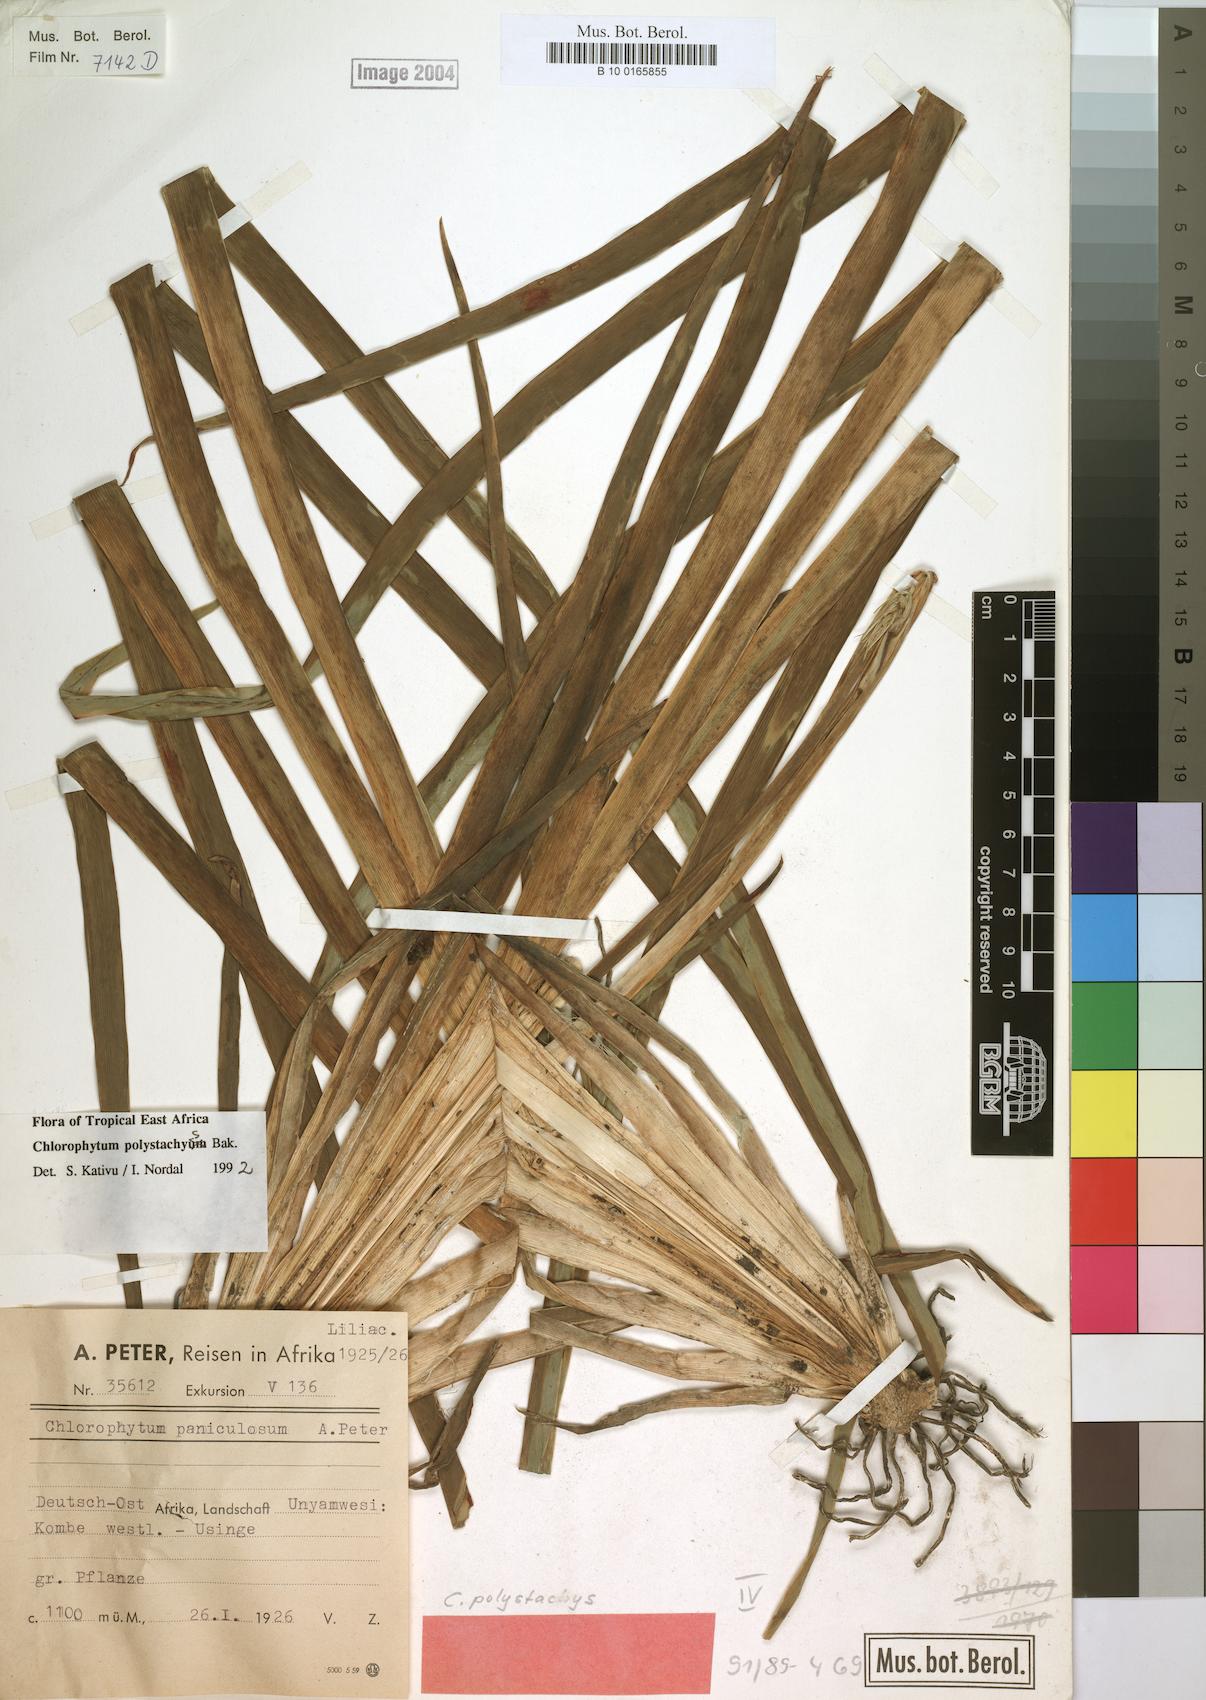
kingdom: Plantae
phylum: Tracheophyta
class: Liliopsida
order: Asparagales
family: Asparagaceae
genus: Chlorophytum
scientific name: Chlorophytum polystachys
